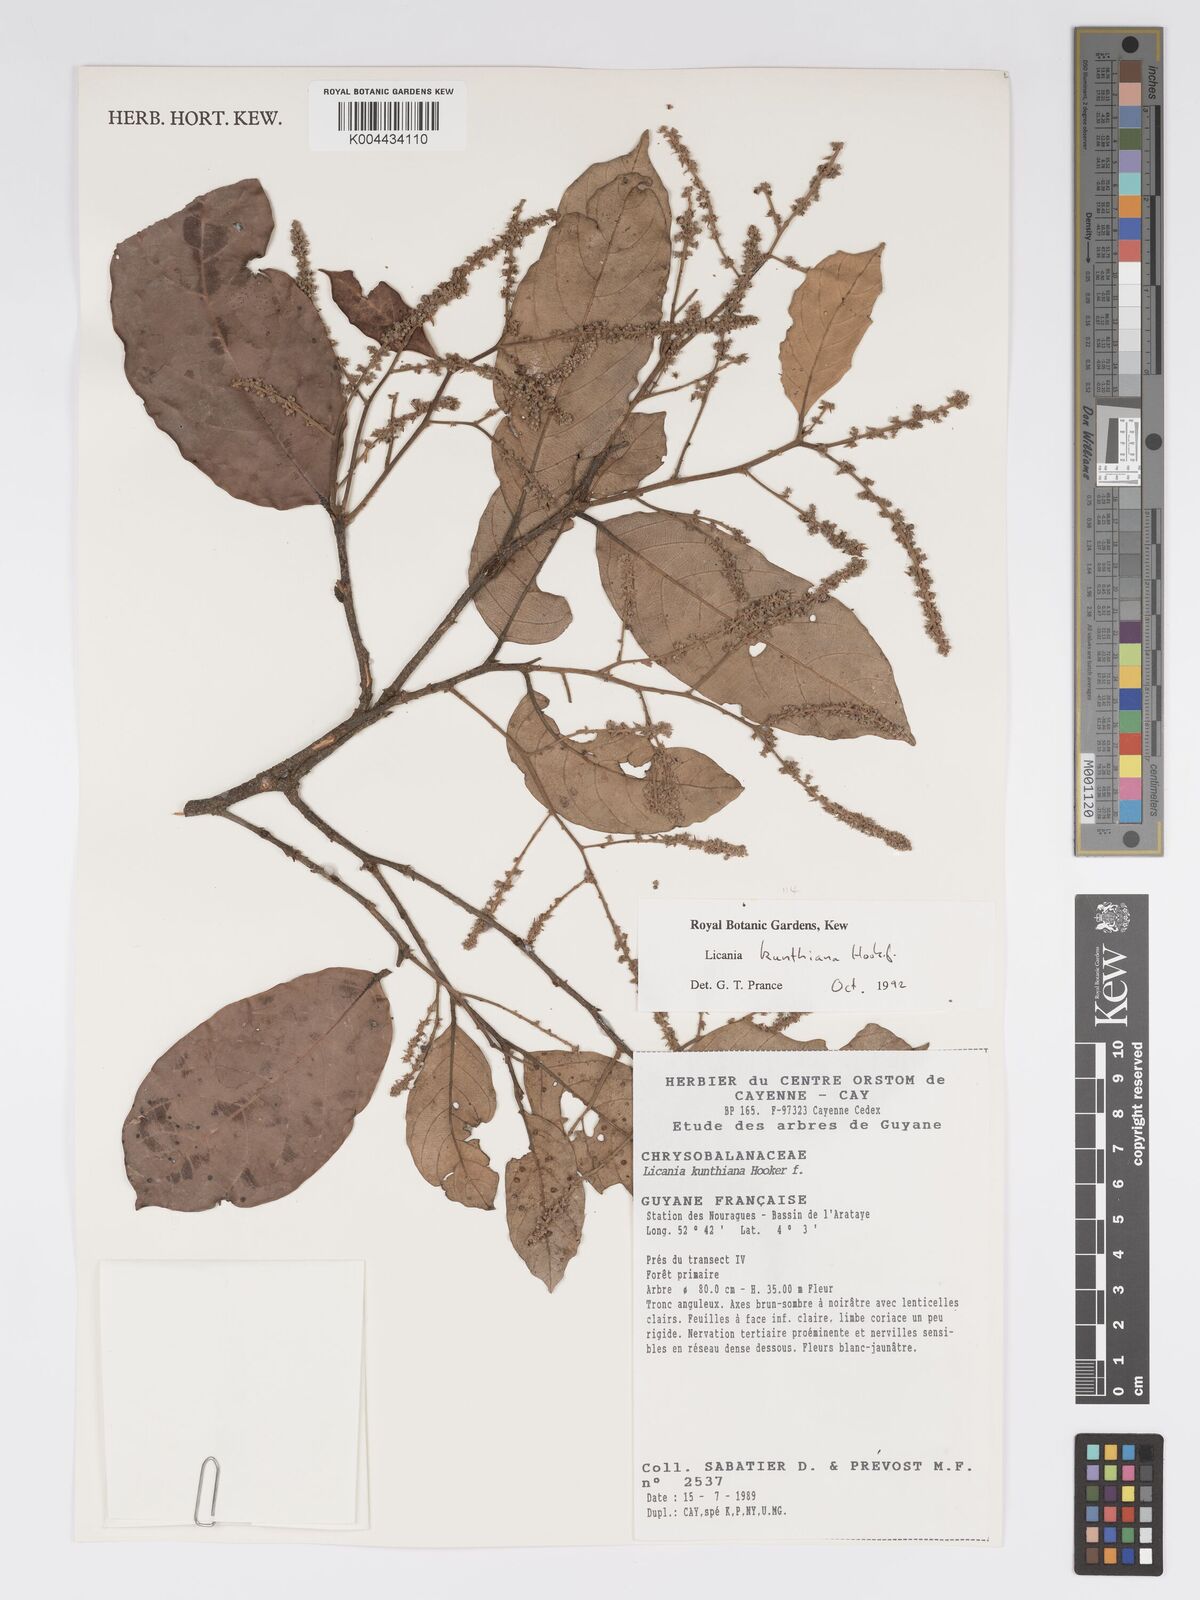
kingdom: Plantae
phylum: Tracheophyta
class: Magnoliopsida
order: Malpighiales
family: Chrysobalanaceae
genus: Licania
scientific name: Licania kunthiana
